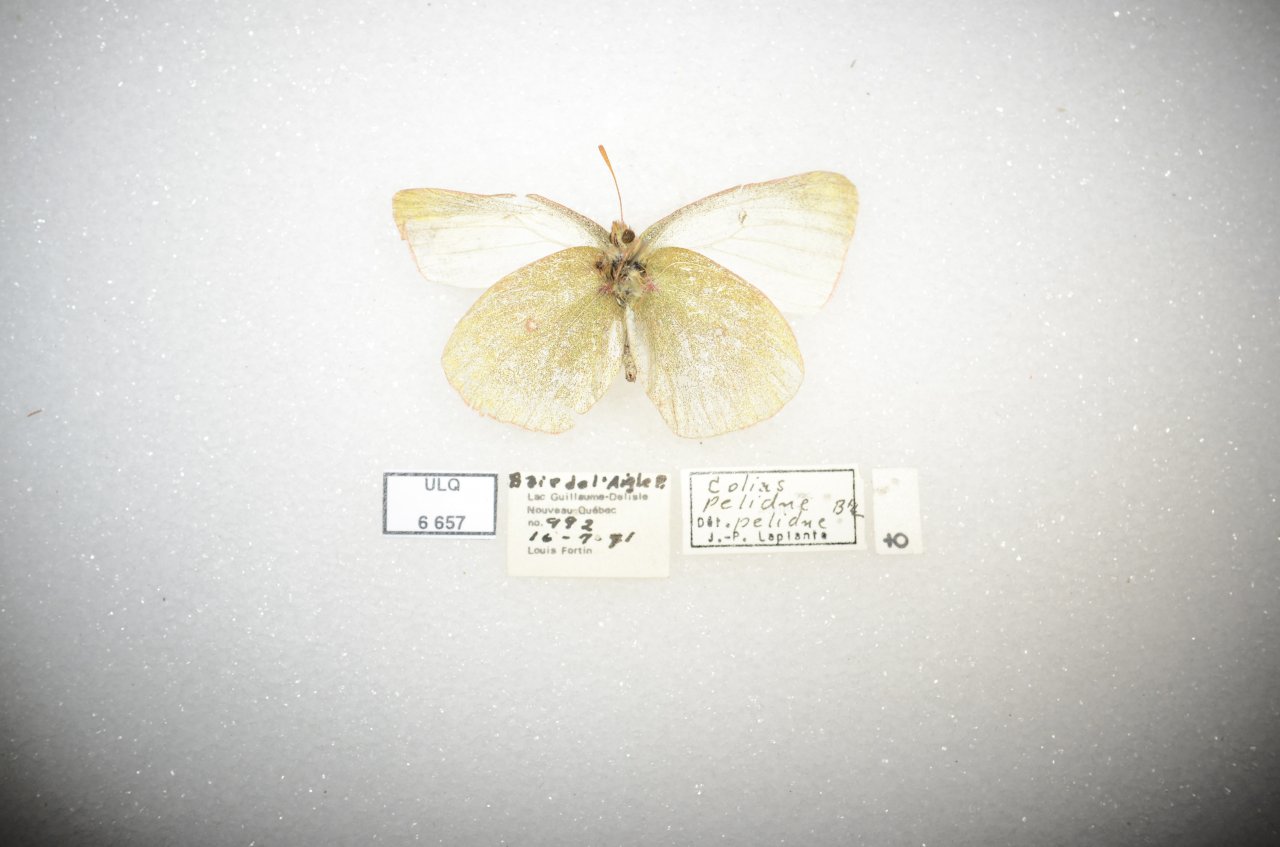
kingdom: Animalia
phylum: Arthropoda
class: Insecta
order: Lepidoptera
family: Pieridae
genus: Colias
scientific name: Colias palaeno
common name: Chippewa Sulphur
